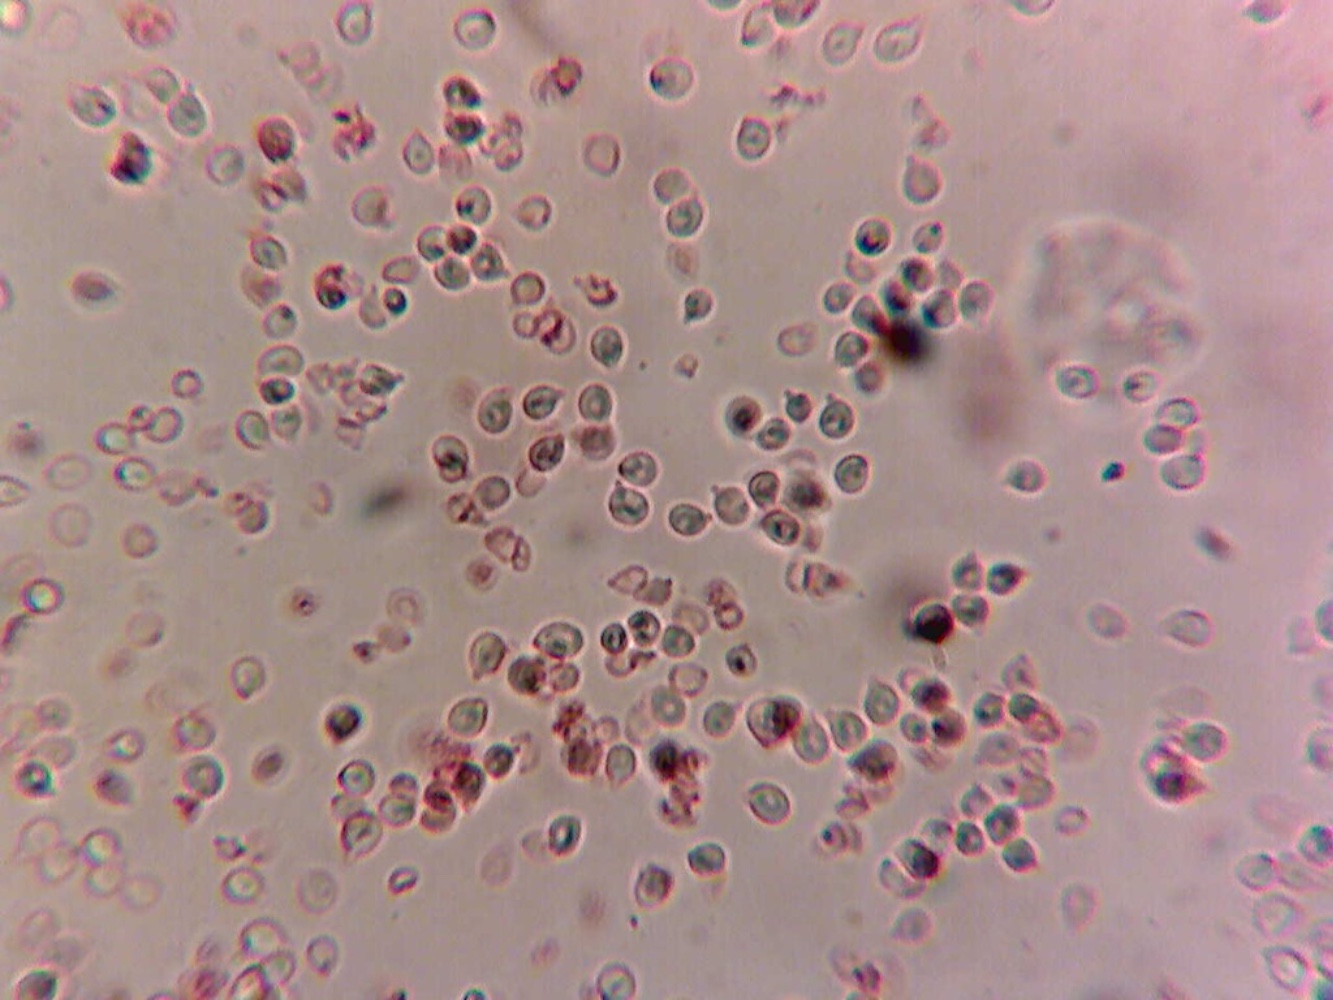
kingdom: Fungi
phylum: Basidiomycota
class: Agaricomycetes
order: Agaricales
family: Lyophyllaceae
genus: Ossicaulis
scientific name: Ossicaulis salomii
